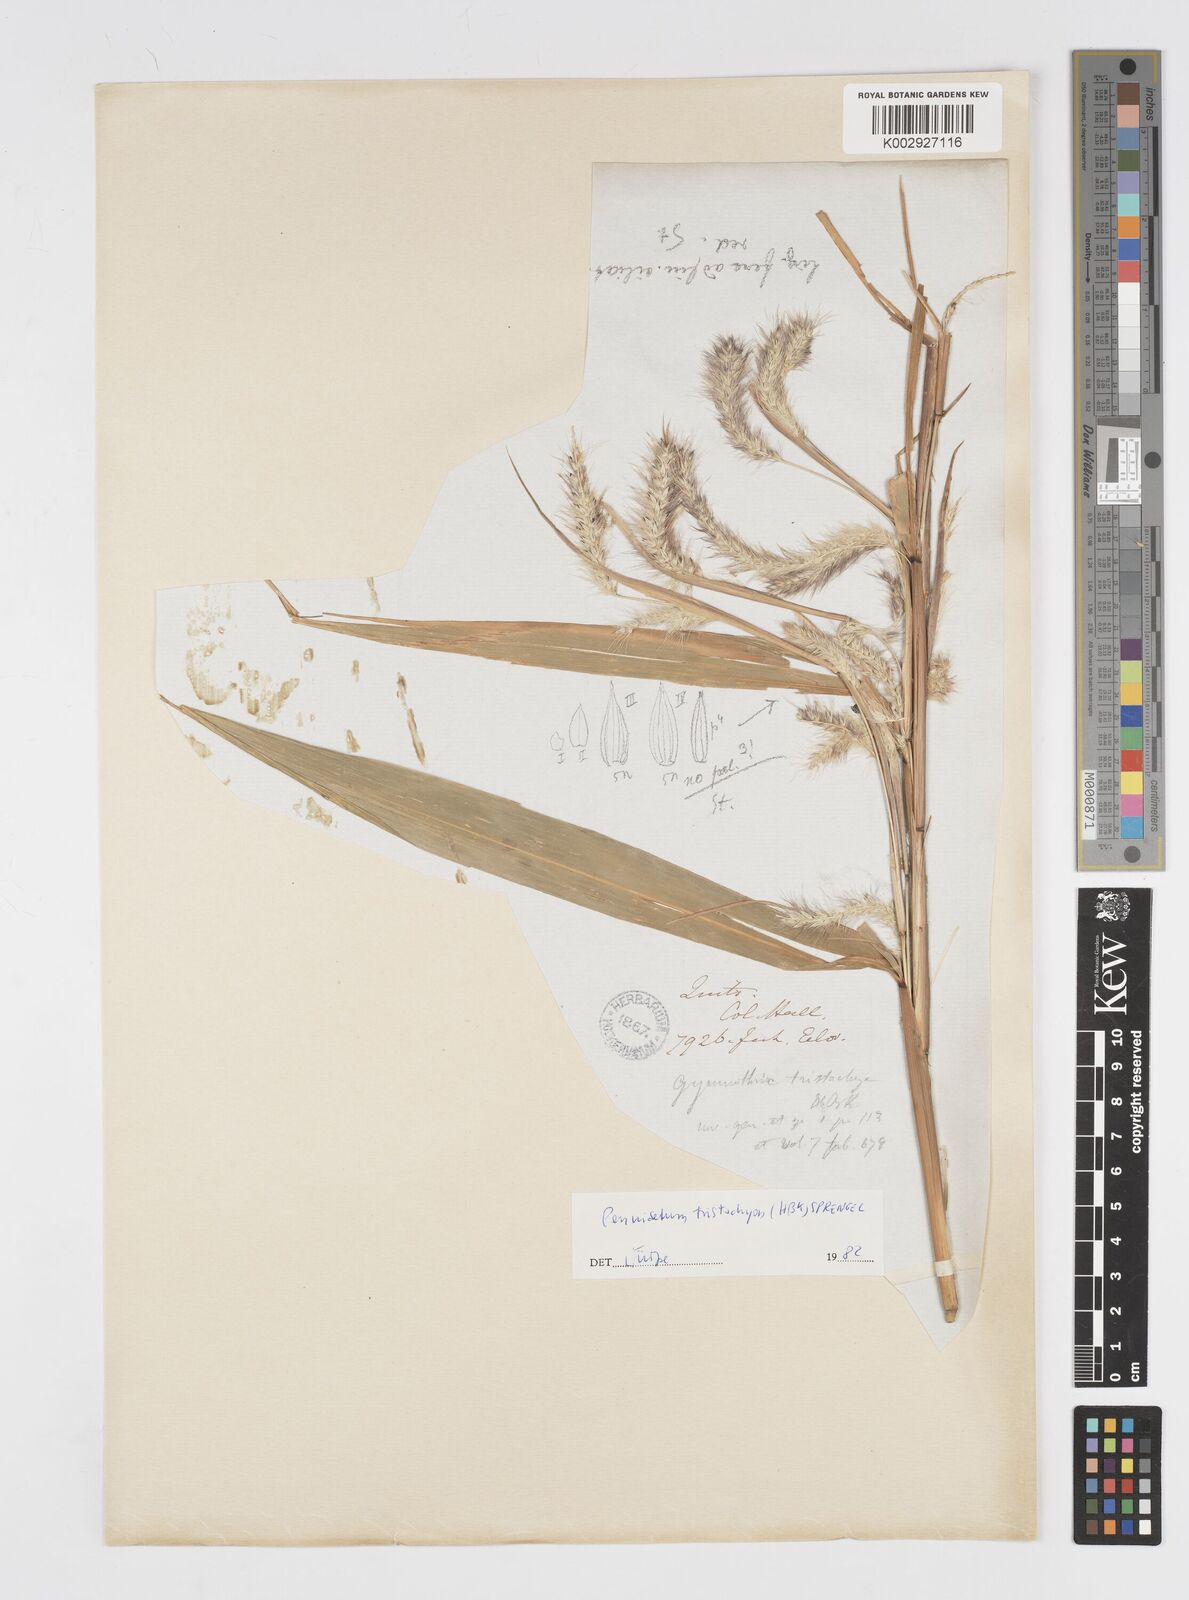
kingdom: Plantae
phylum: Tracheophyta
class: Liliopsida
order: Poales
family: Poaceae
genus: Cenchrus
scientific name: Cenchrus tristachyus
